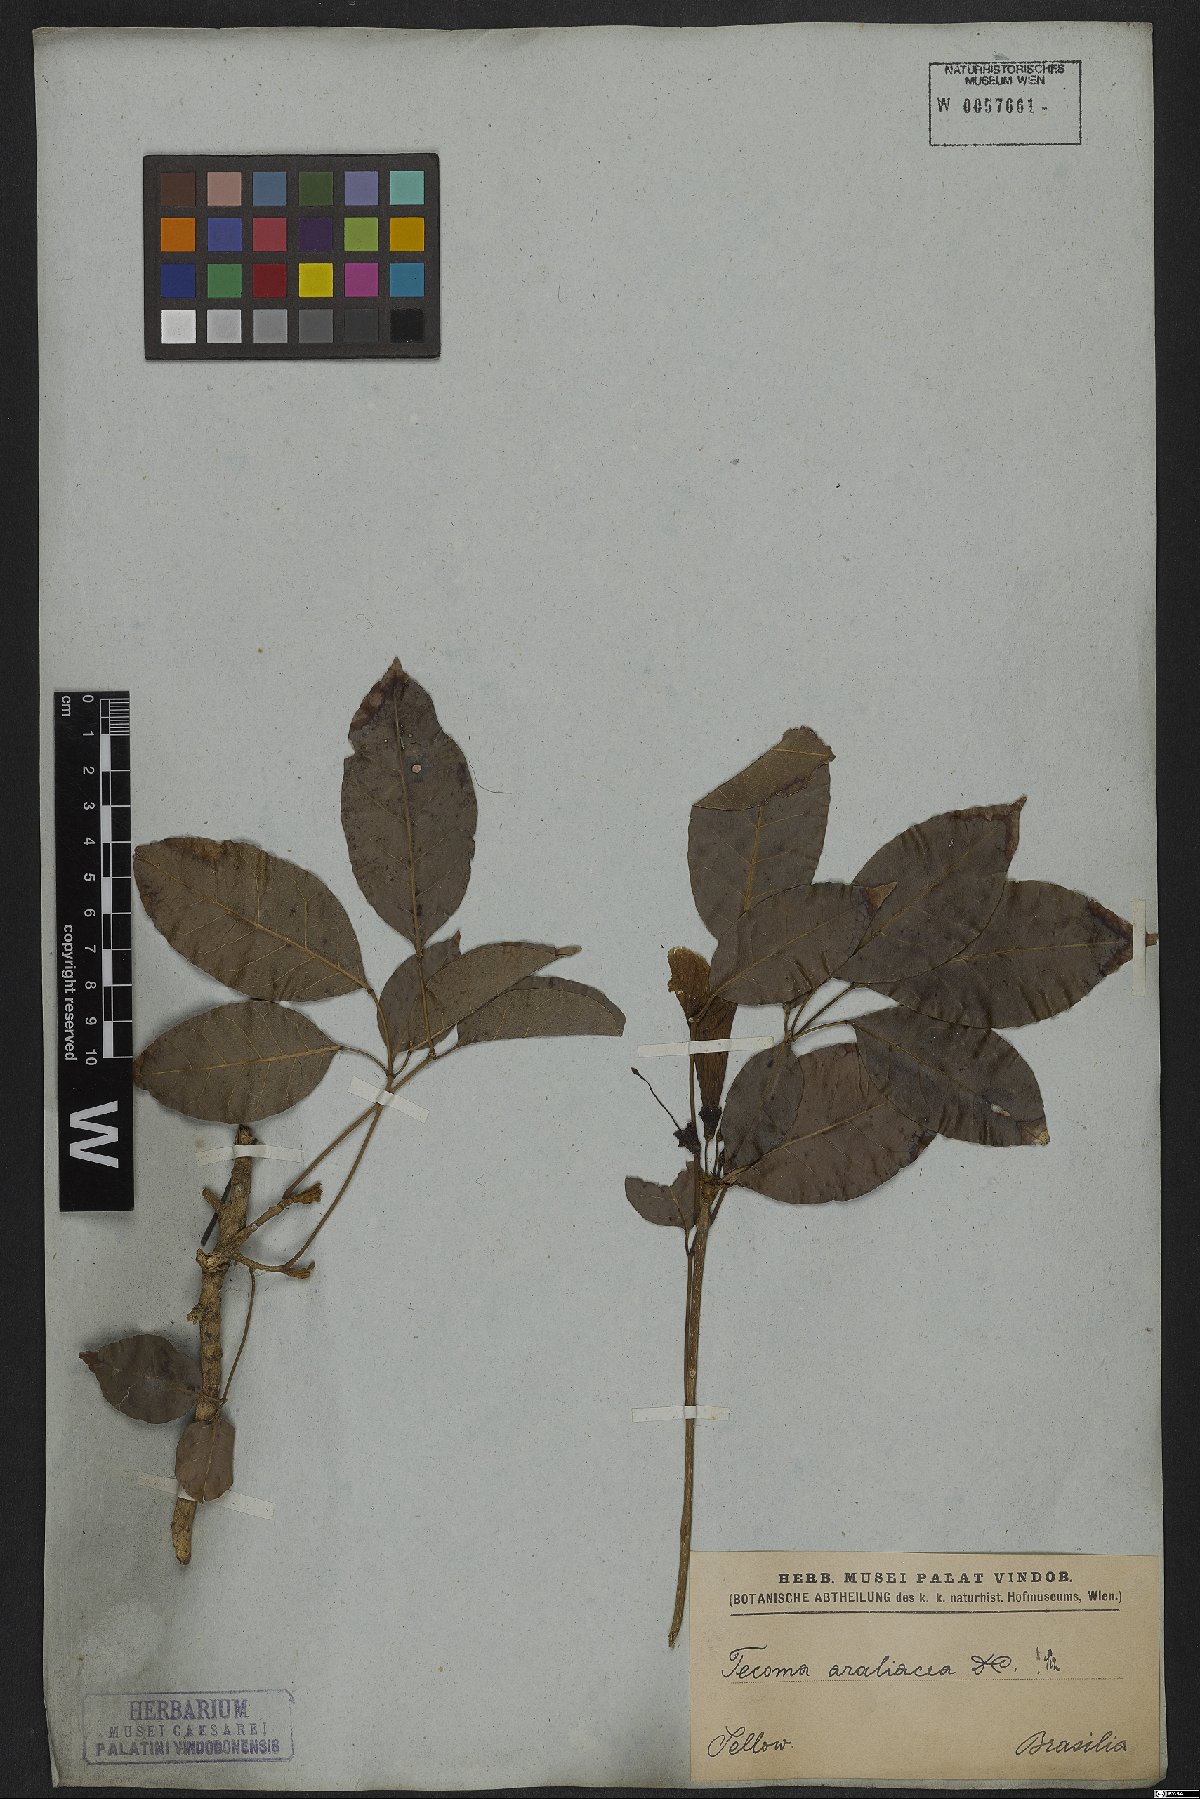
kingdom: Plantae
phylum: Tracheophyta
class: Magnoliopsida
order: Lamiales
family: Bignoniaceae
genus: Handroanthus
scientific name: Handroanthus serratifolius
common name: Yellow ipe
